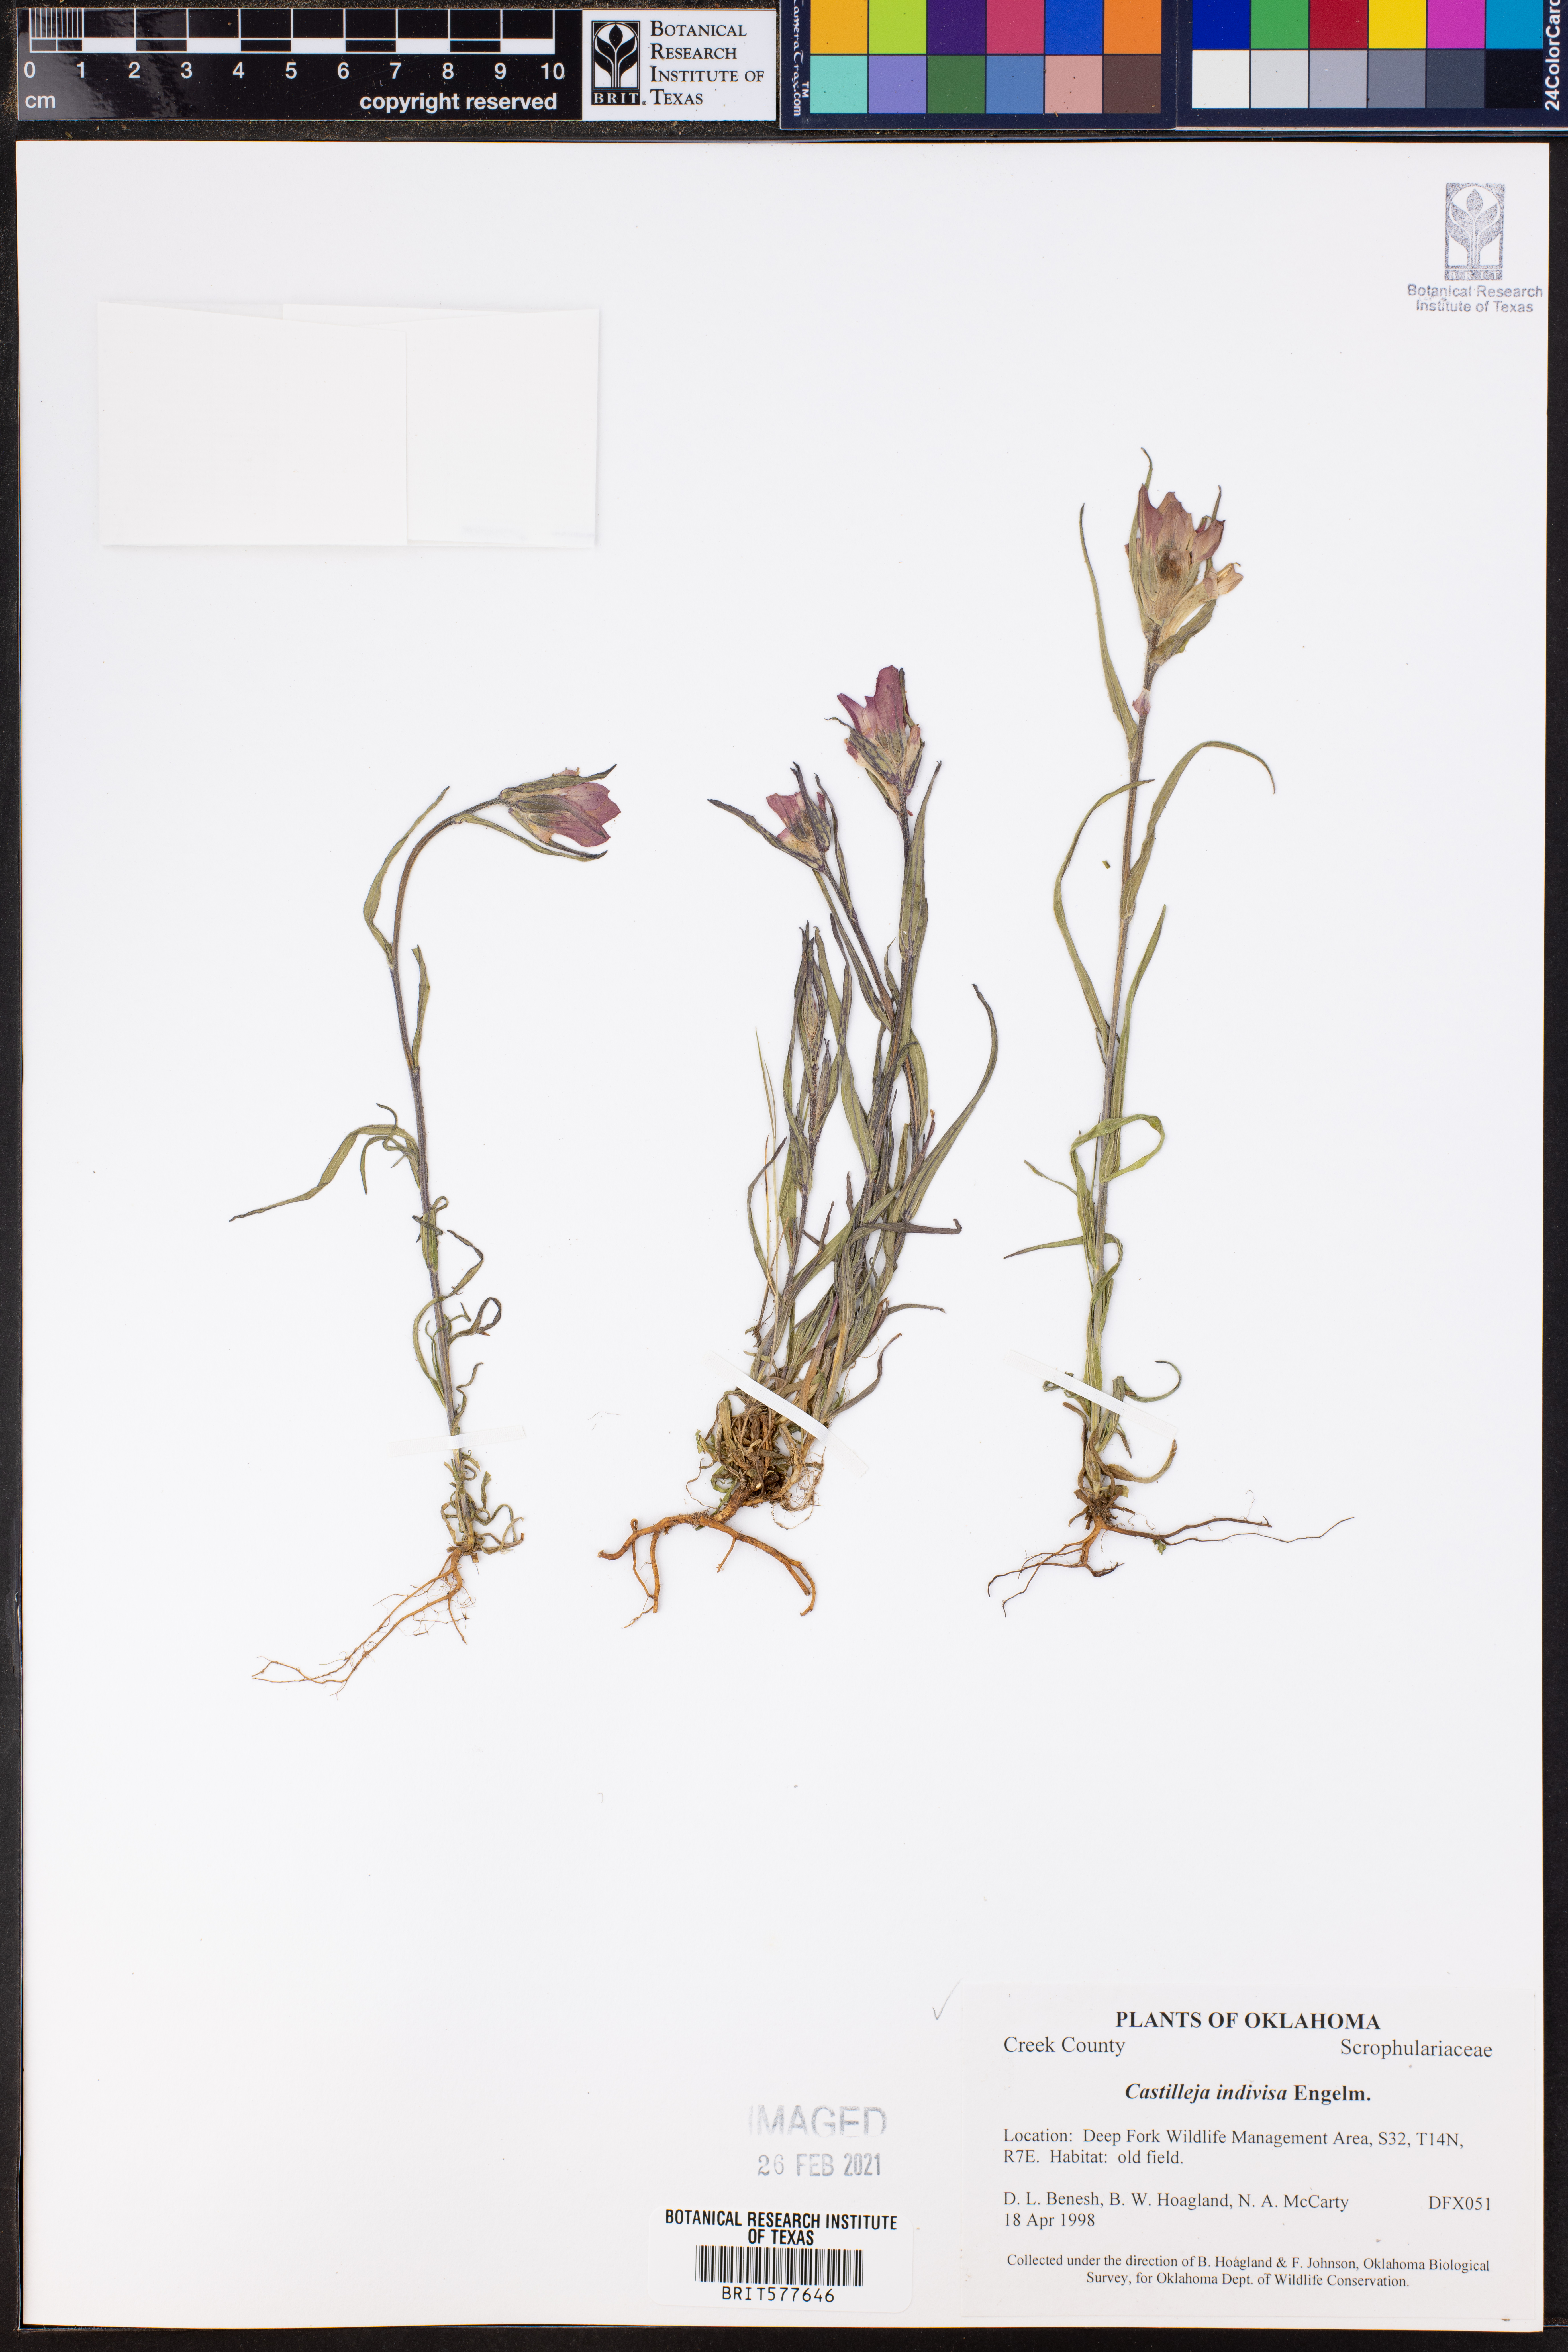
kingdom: Plantae
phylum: Tracheophyta
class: Magnoliopsida
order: Lamiales
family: Orobanchaceae
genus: Castilleja
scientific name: Castilleja indivisa
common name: Texas paintbrush
